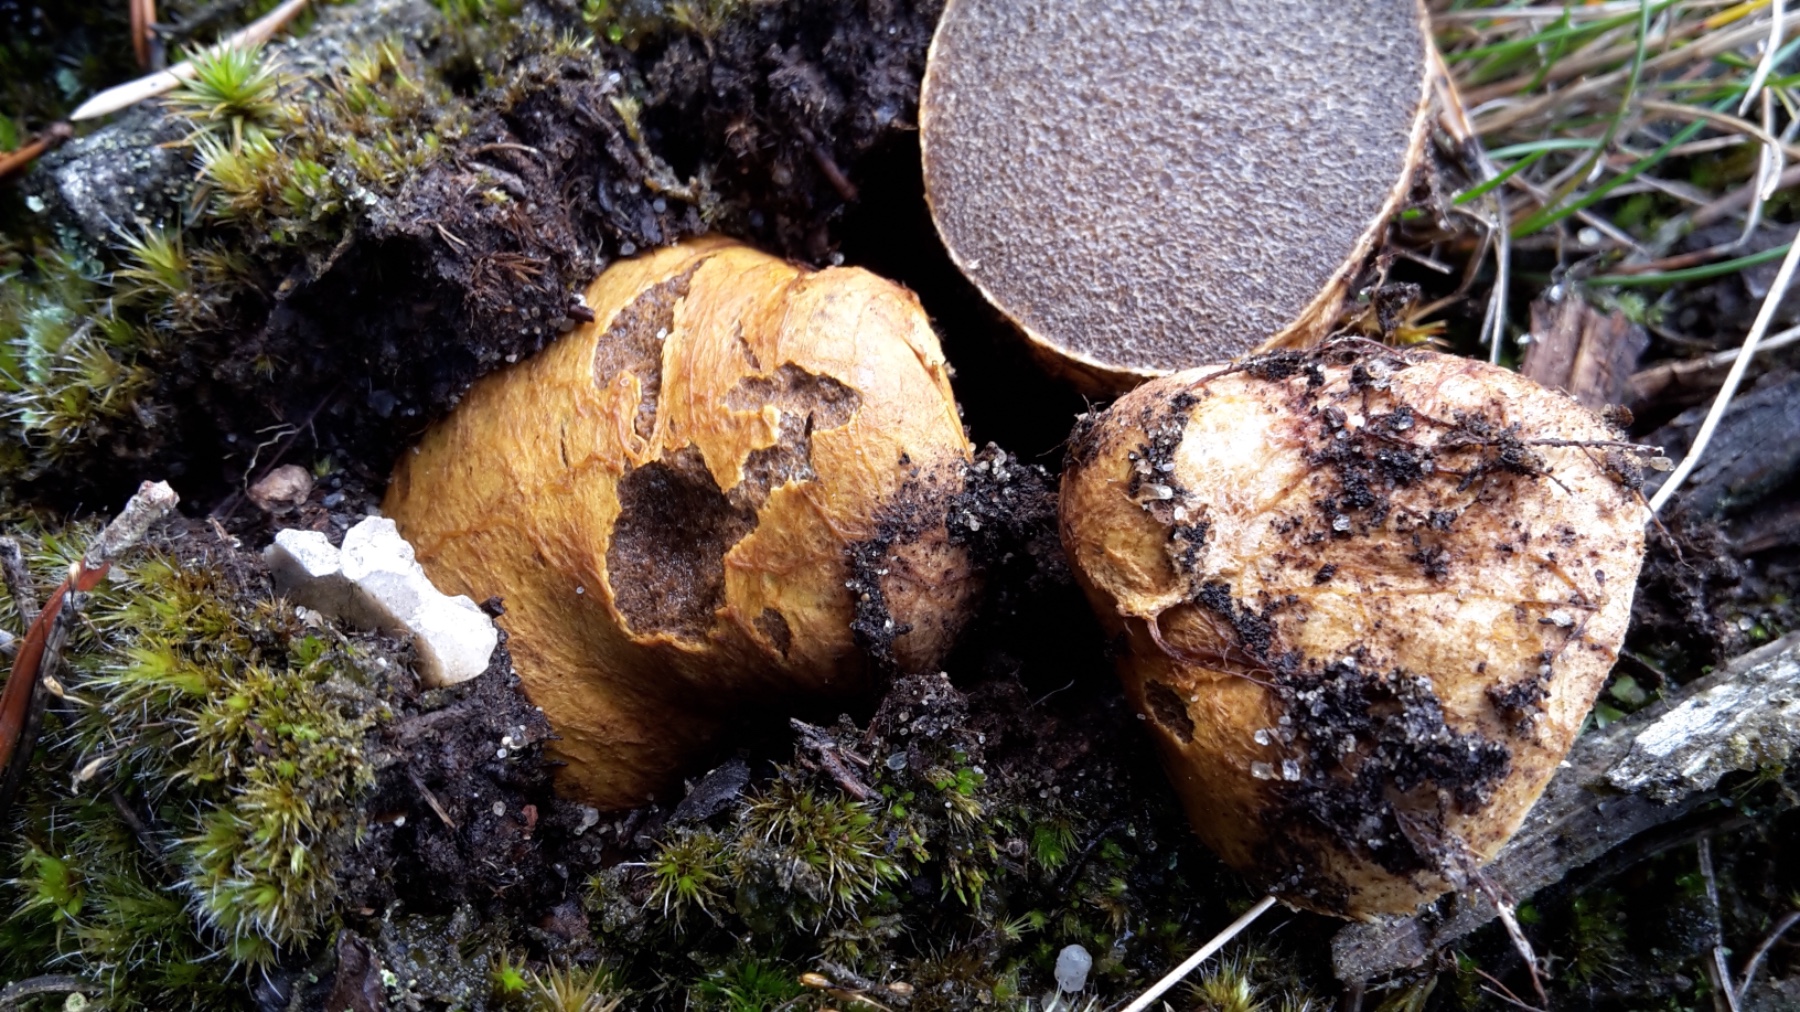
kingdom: Fungi
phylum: Basidiomycota
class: Agaricomycetes
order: Boletales
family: Rhizopogonaceae
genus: Rhizopogon
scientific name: Rhizopogon obtextus
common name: gul skægtrøffel
